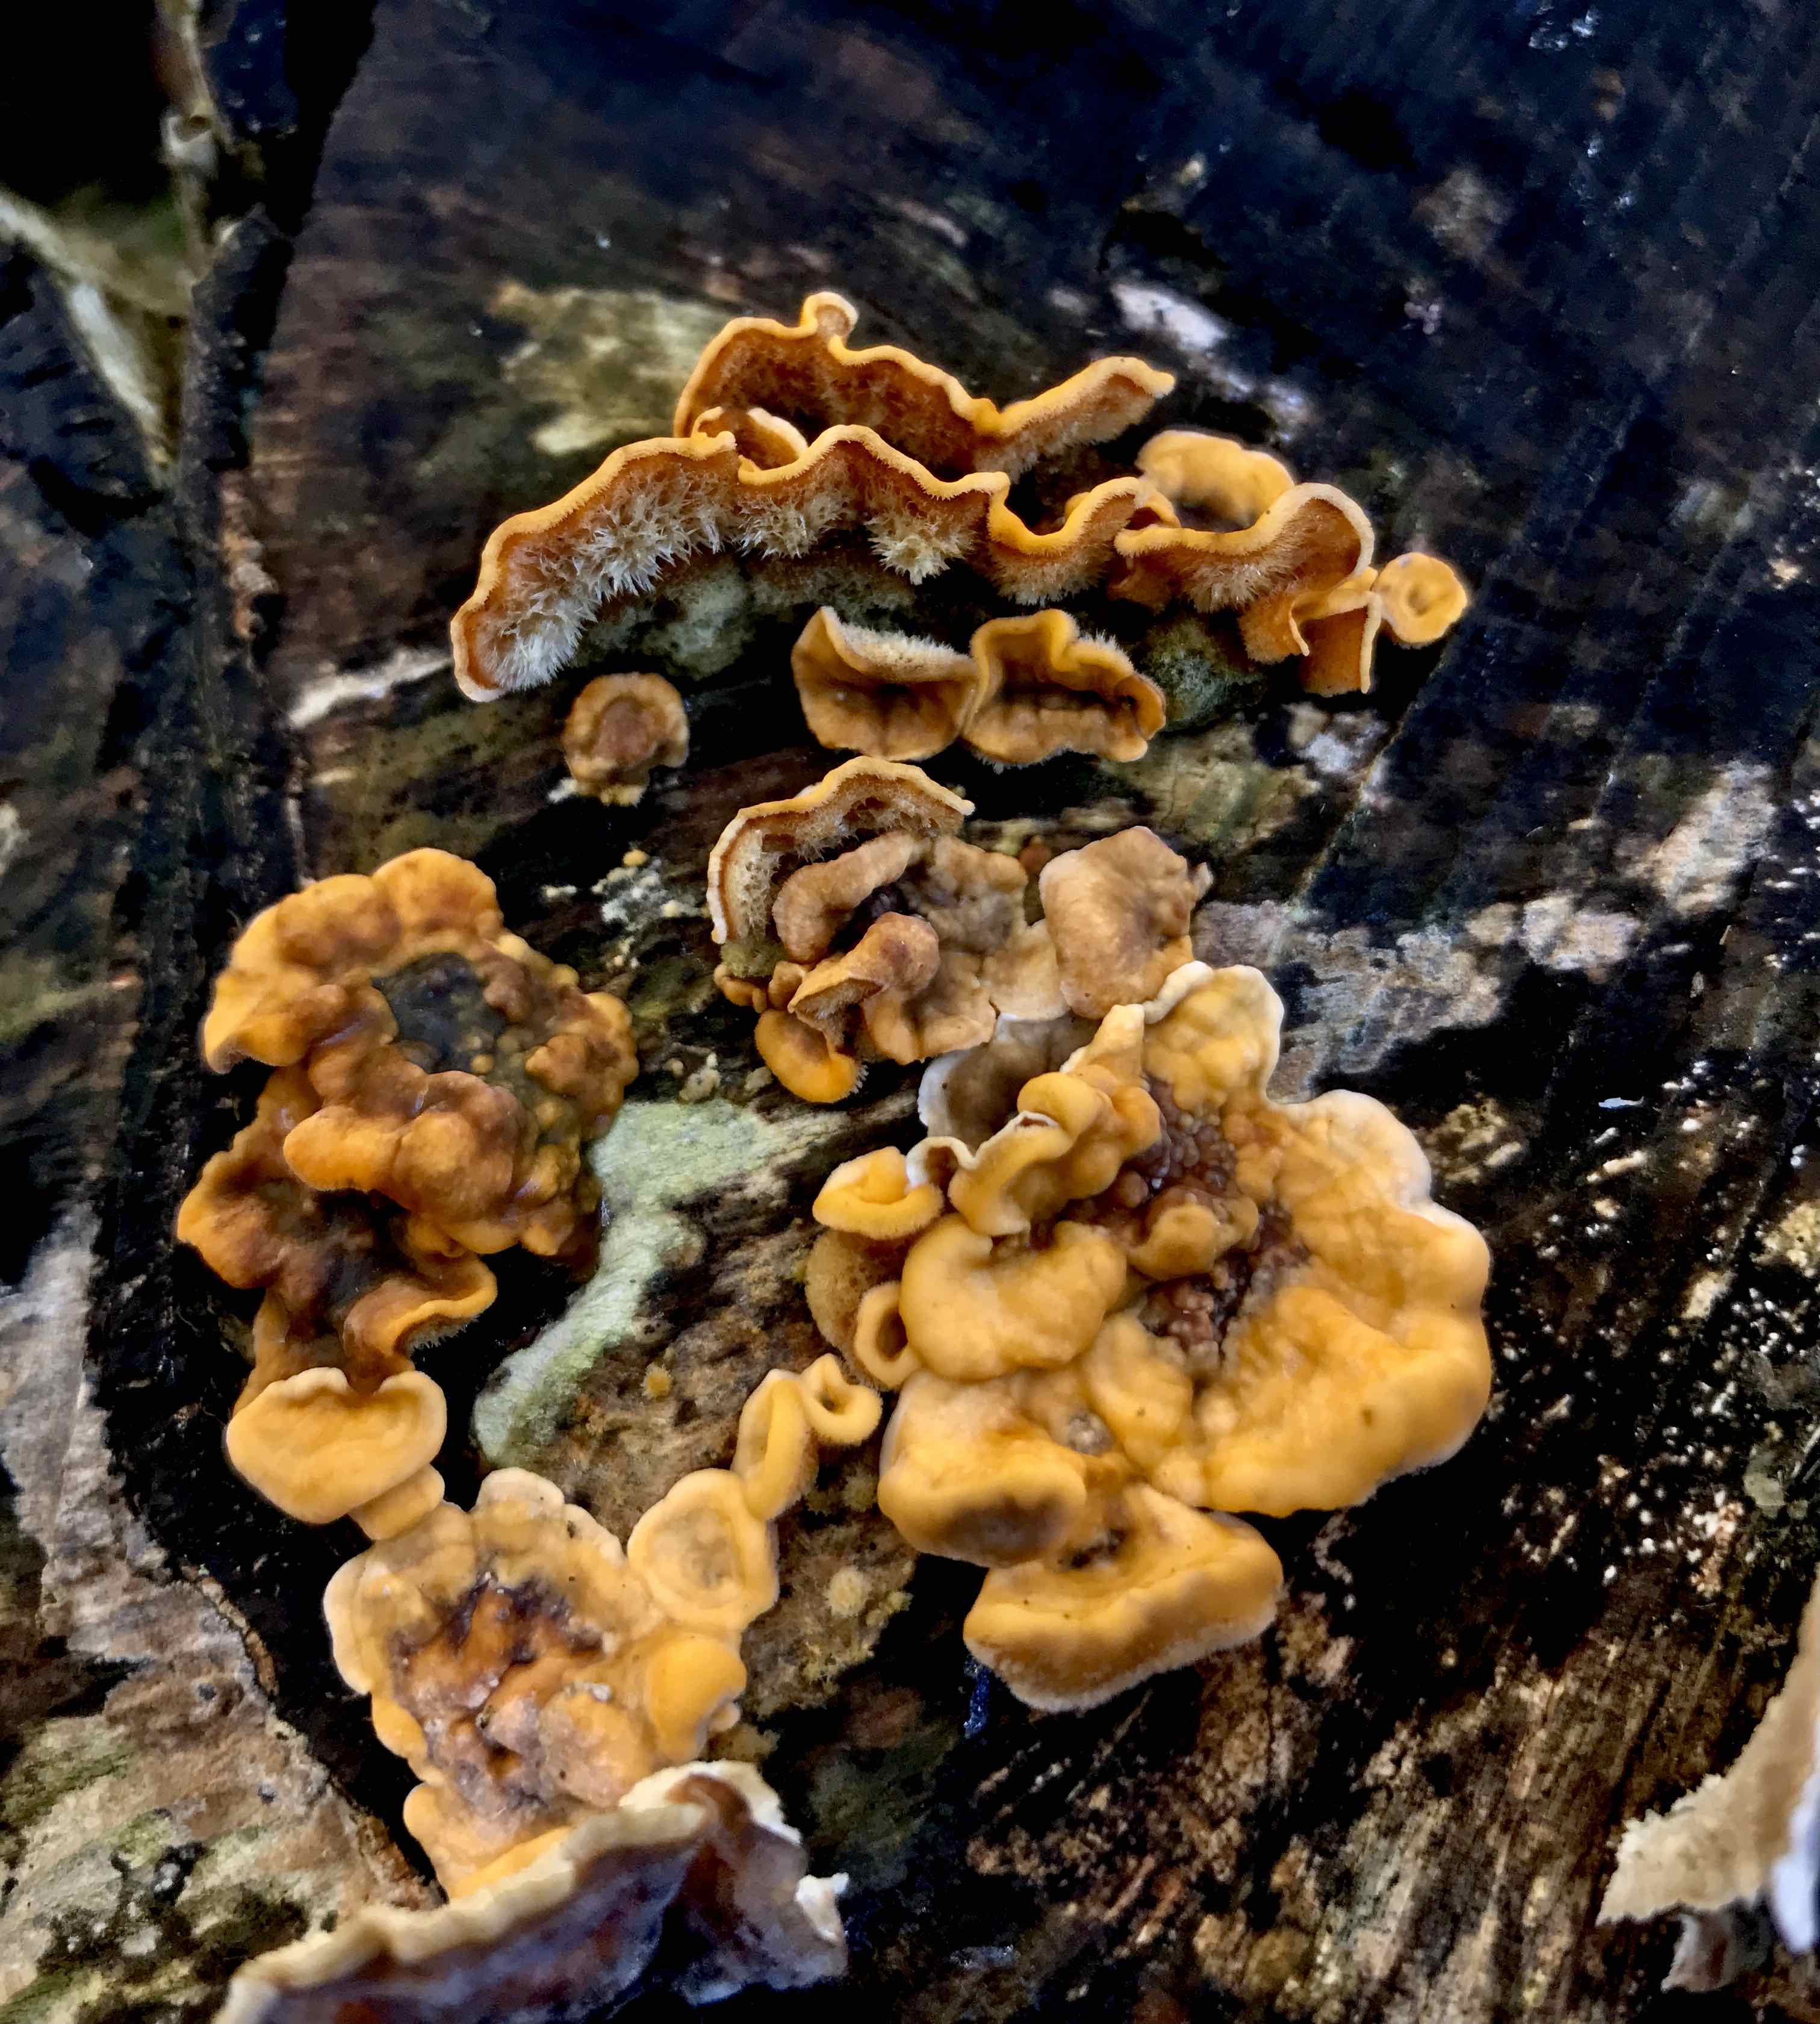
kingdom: Fungi
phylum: Basidiomycota
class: Agaricomycetes
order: Russulales
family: Stereaceae
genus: Stereum
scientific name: Stereum hirsutum
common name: håret lædersvamp
